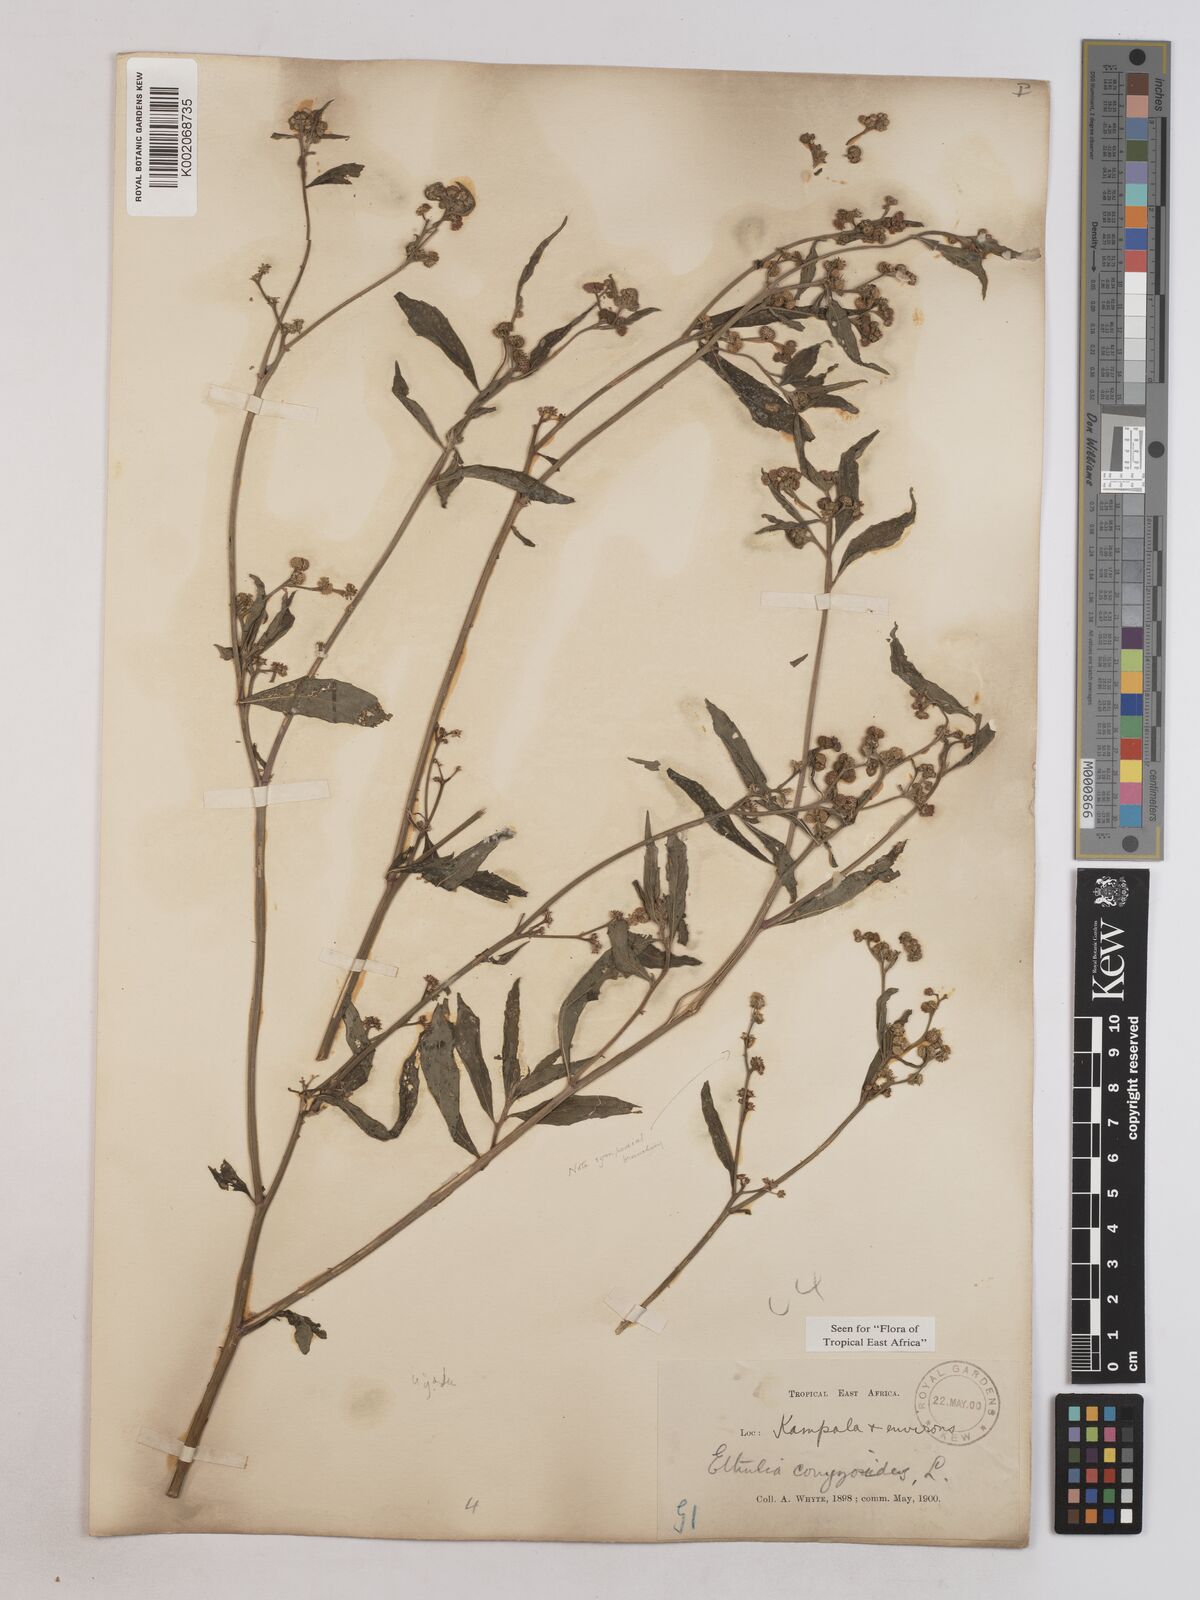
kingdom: Plantae
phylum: Tracheophyta
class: Magnoliopsida
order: Asterales
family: Asteraceae
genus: Ethulia
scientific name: Ethulia conyzoides
